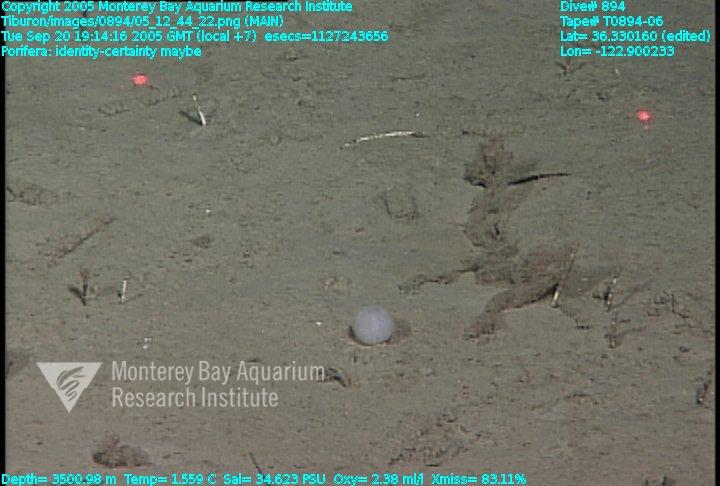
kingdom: Animalia
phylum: Porifera
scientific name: Porifera
